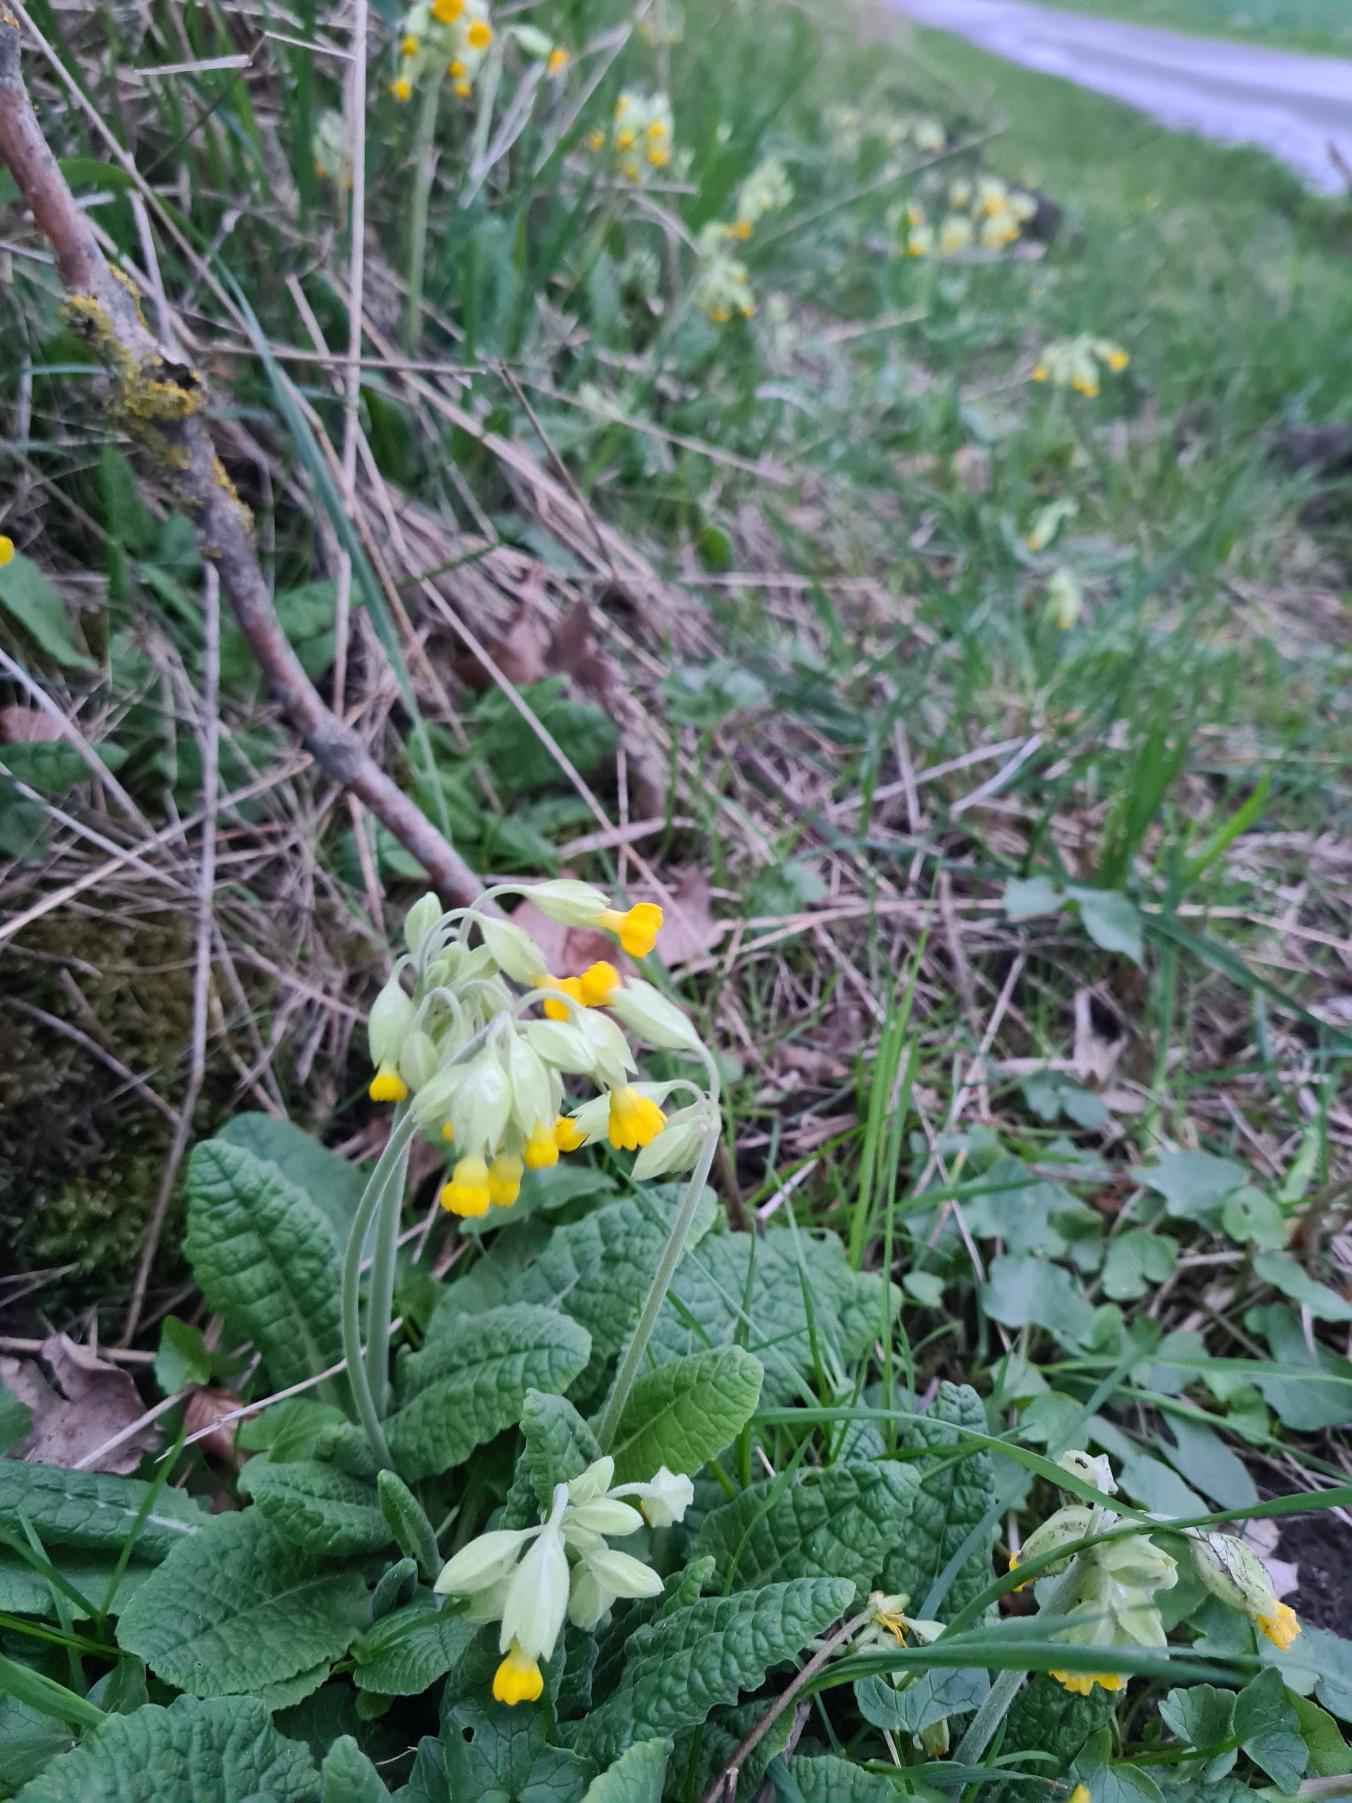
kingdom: Plantae
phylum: Tracheophyta
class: Magnoliopsida
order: Ericales
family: Primulaceae
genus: Primula
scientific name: Primula veris
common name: Hulkravet kodriver
